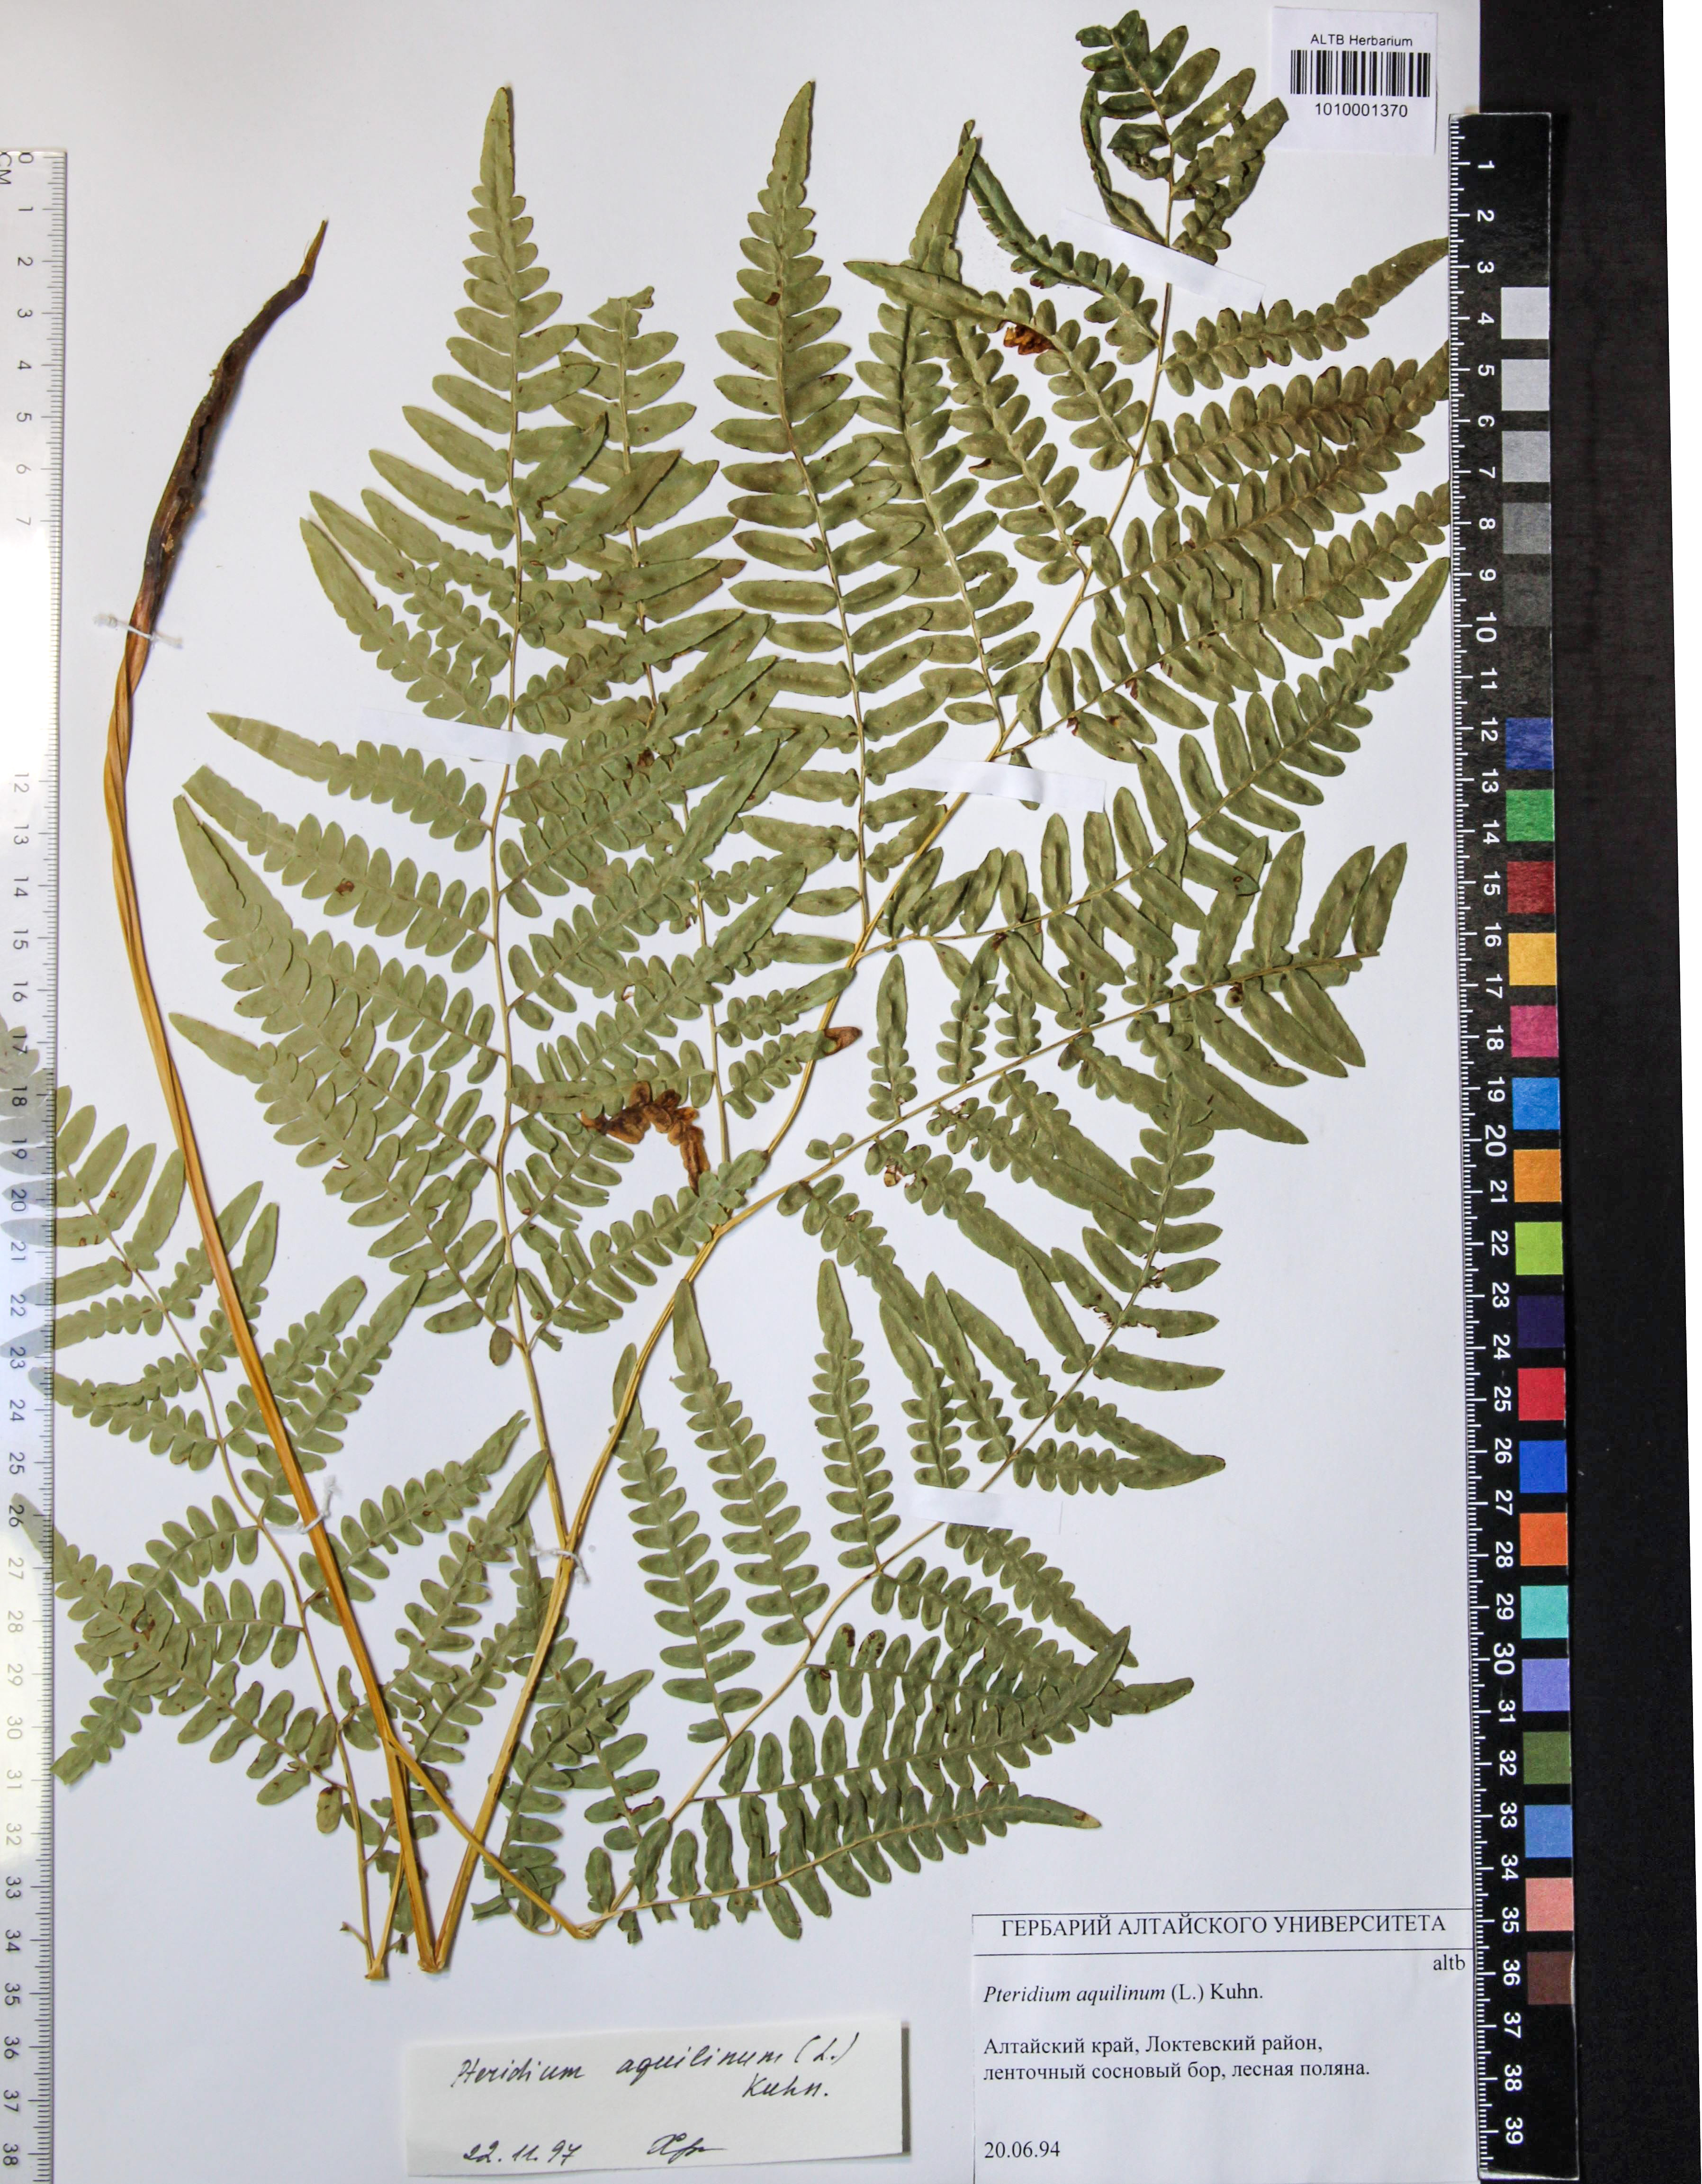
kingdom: Plantae
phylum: Tracheophyta
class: Polypodiopsida
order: Polypodiales
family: Dennstaedtiaceae
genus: Pteridium
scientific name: Pteridium aquilinum
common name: Bracken
